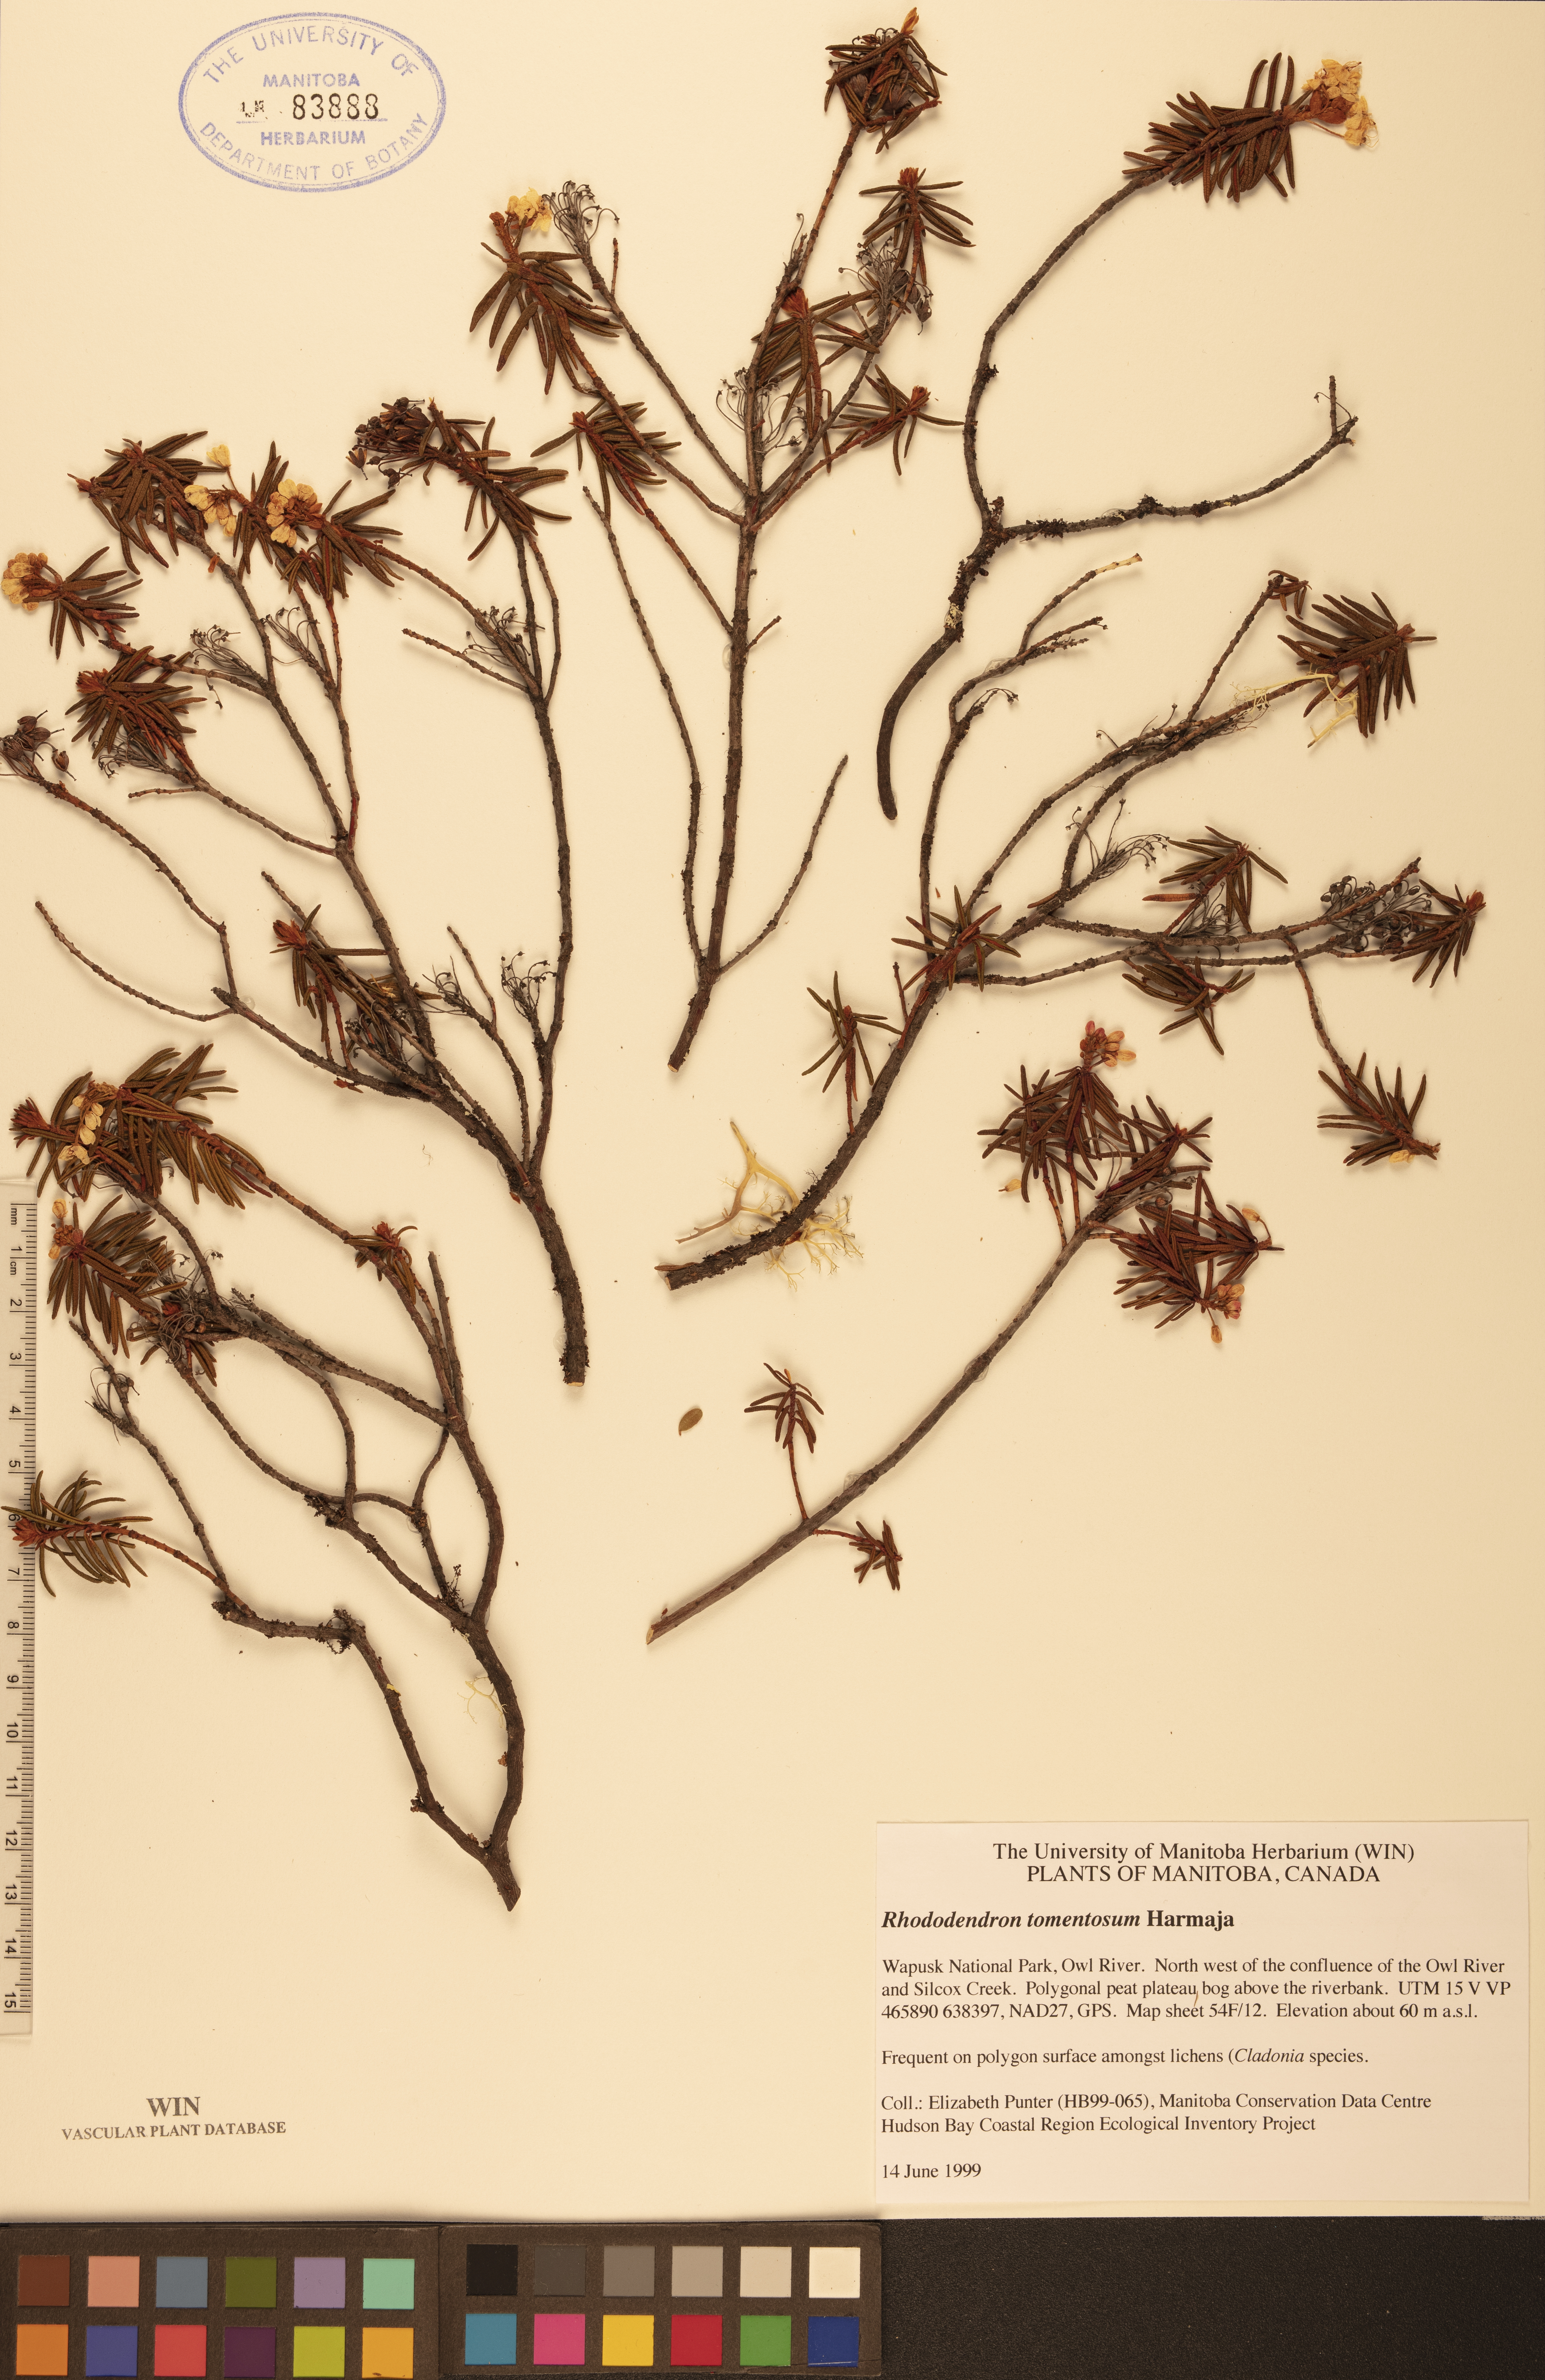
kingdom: Plantae
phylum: Tracheophyta
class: Magnoliopsida
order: Ericales
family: Ericaceae
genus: Rhododendron
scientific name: Rhododendron tomentosum
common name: Marsh labrador tea
